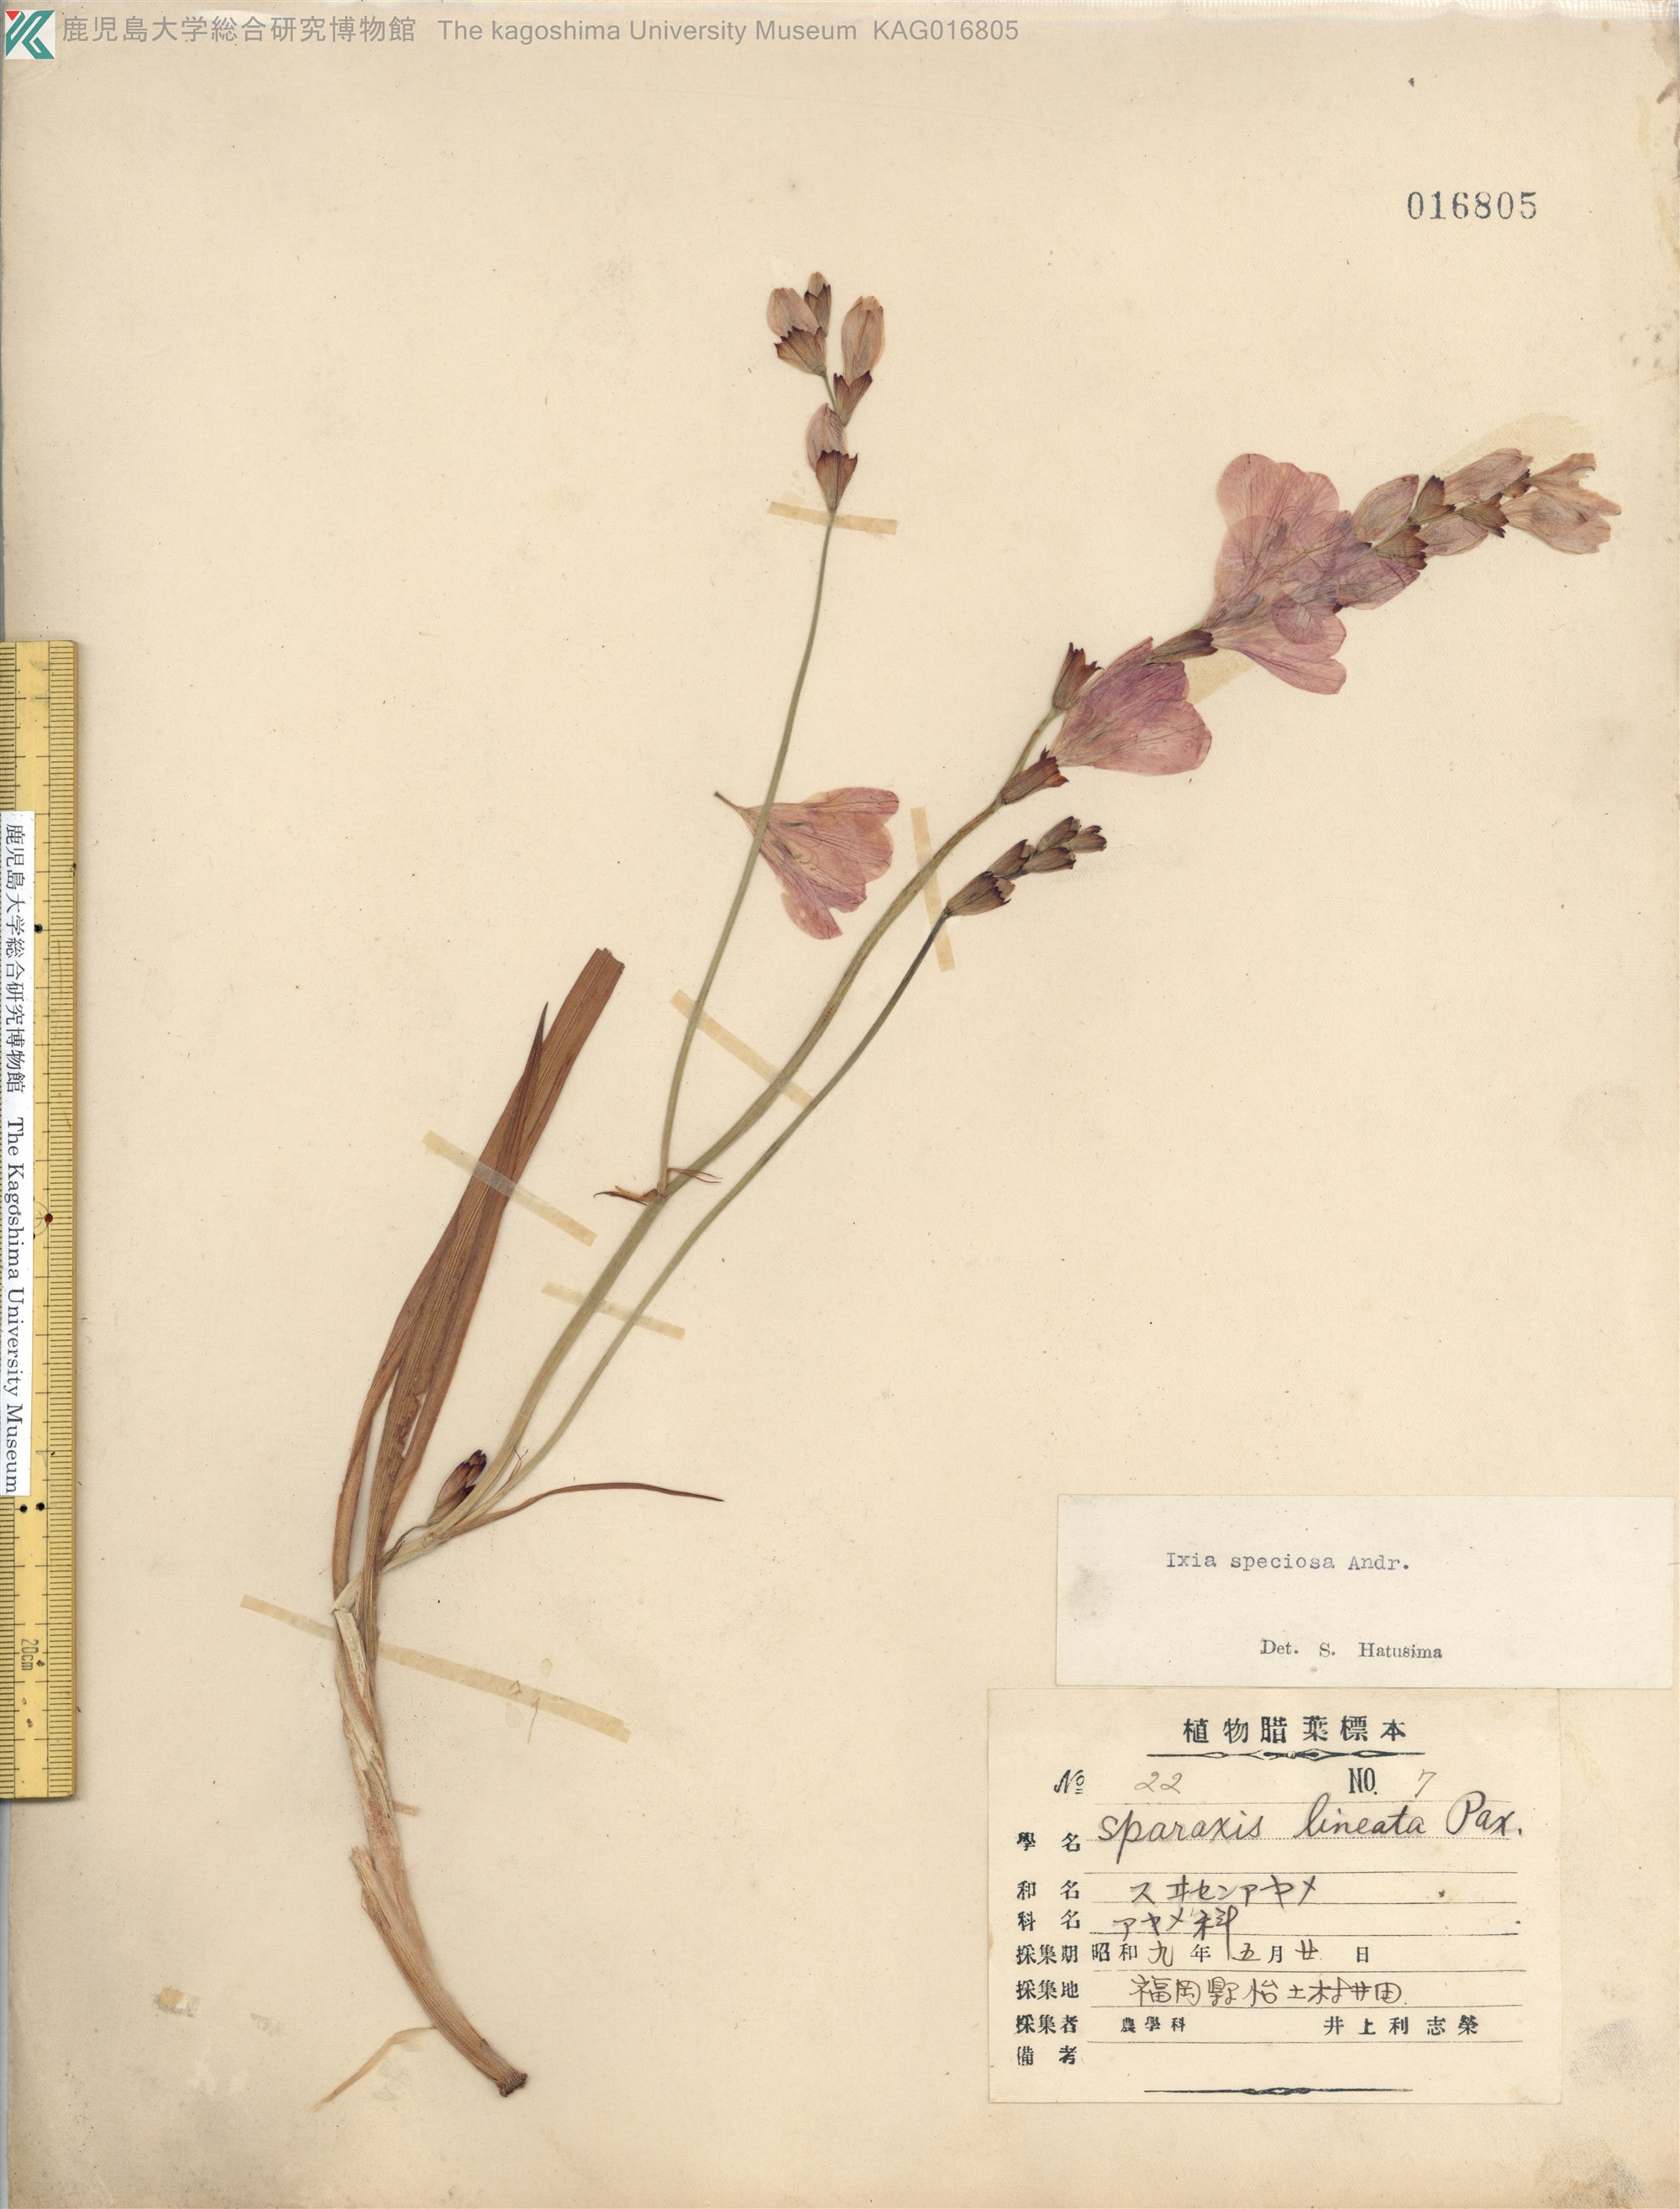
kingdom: Plantae
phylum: Tracheophyta
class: Liliopsida
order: Asparagales
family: Iridaceae
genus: Ixia
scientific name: Ixia campanulata
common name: Red corn-lily
